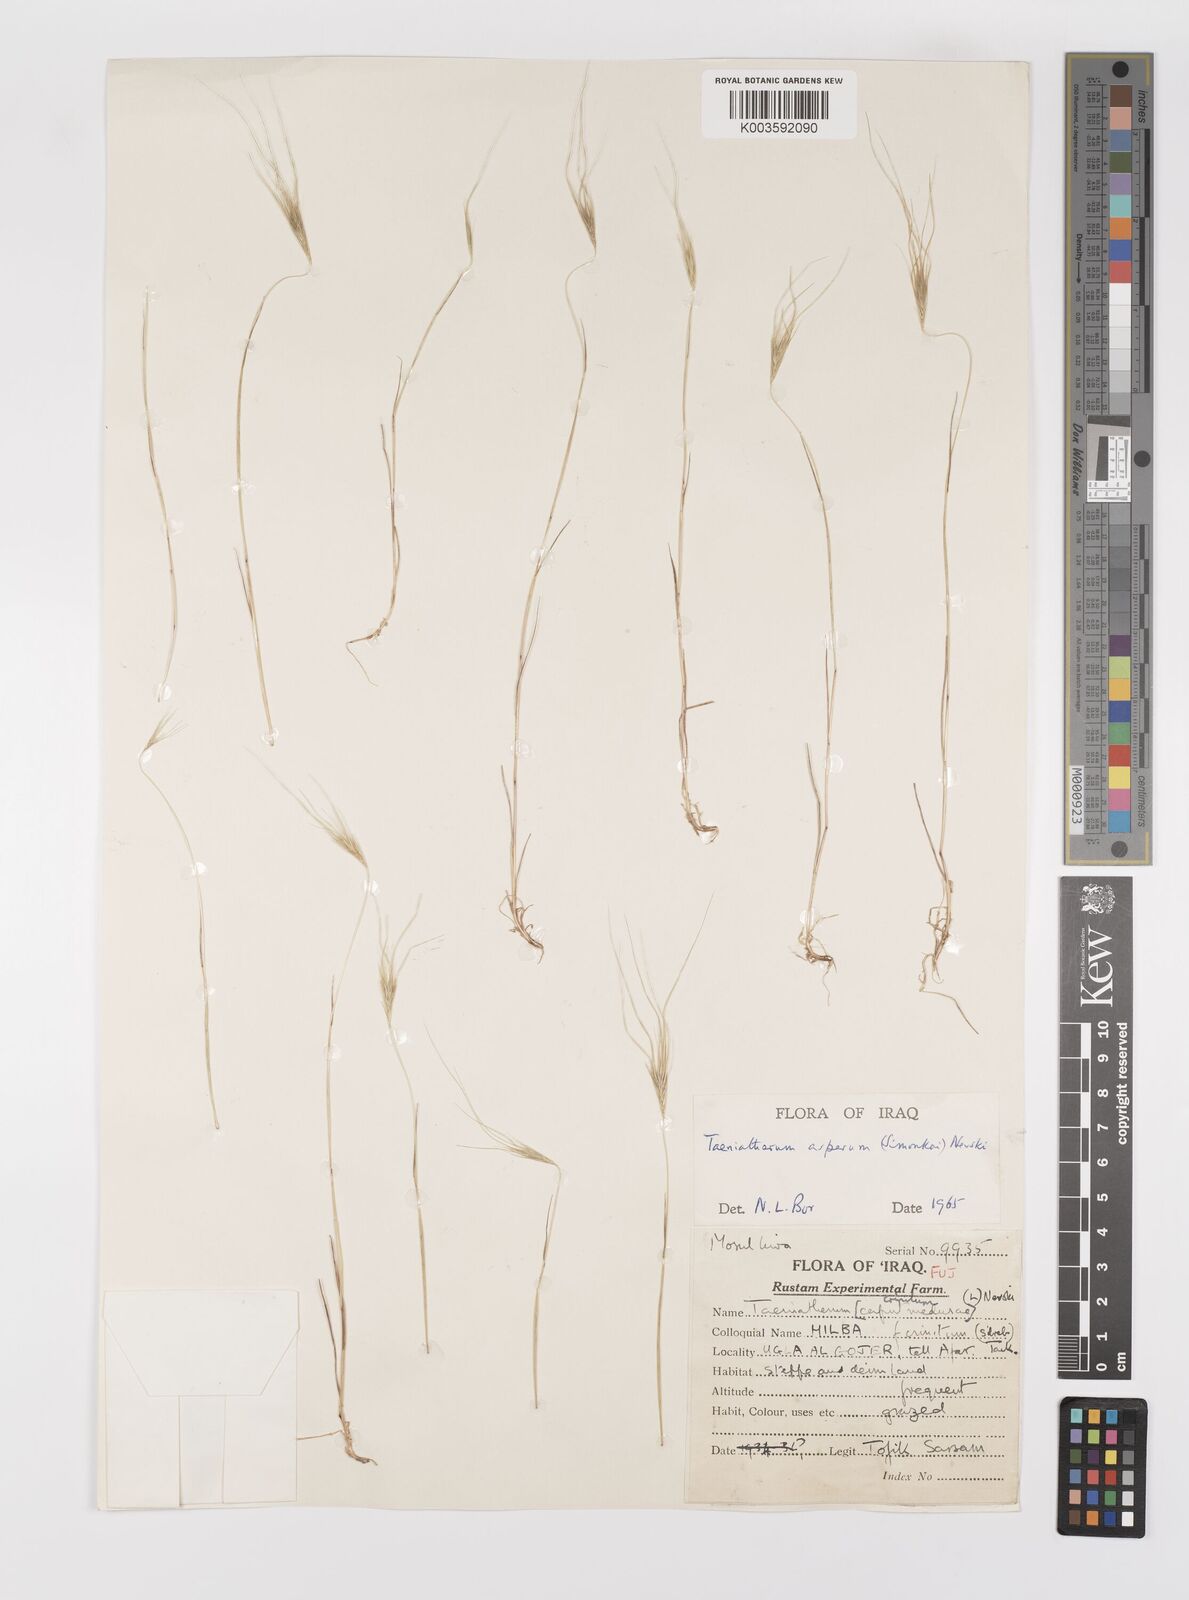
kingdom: Plantae
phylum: Tracheophyta
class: Liliopsida
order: Poales
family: Poaceae
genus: Taeniatherum
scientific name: Taeniatherum caput-medusae
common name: Medusahead
